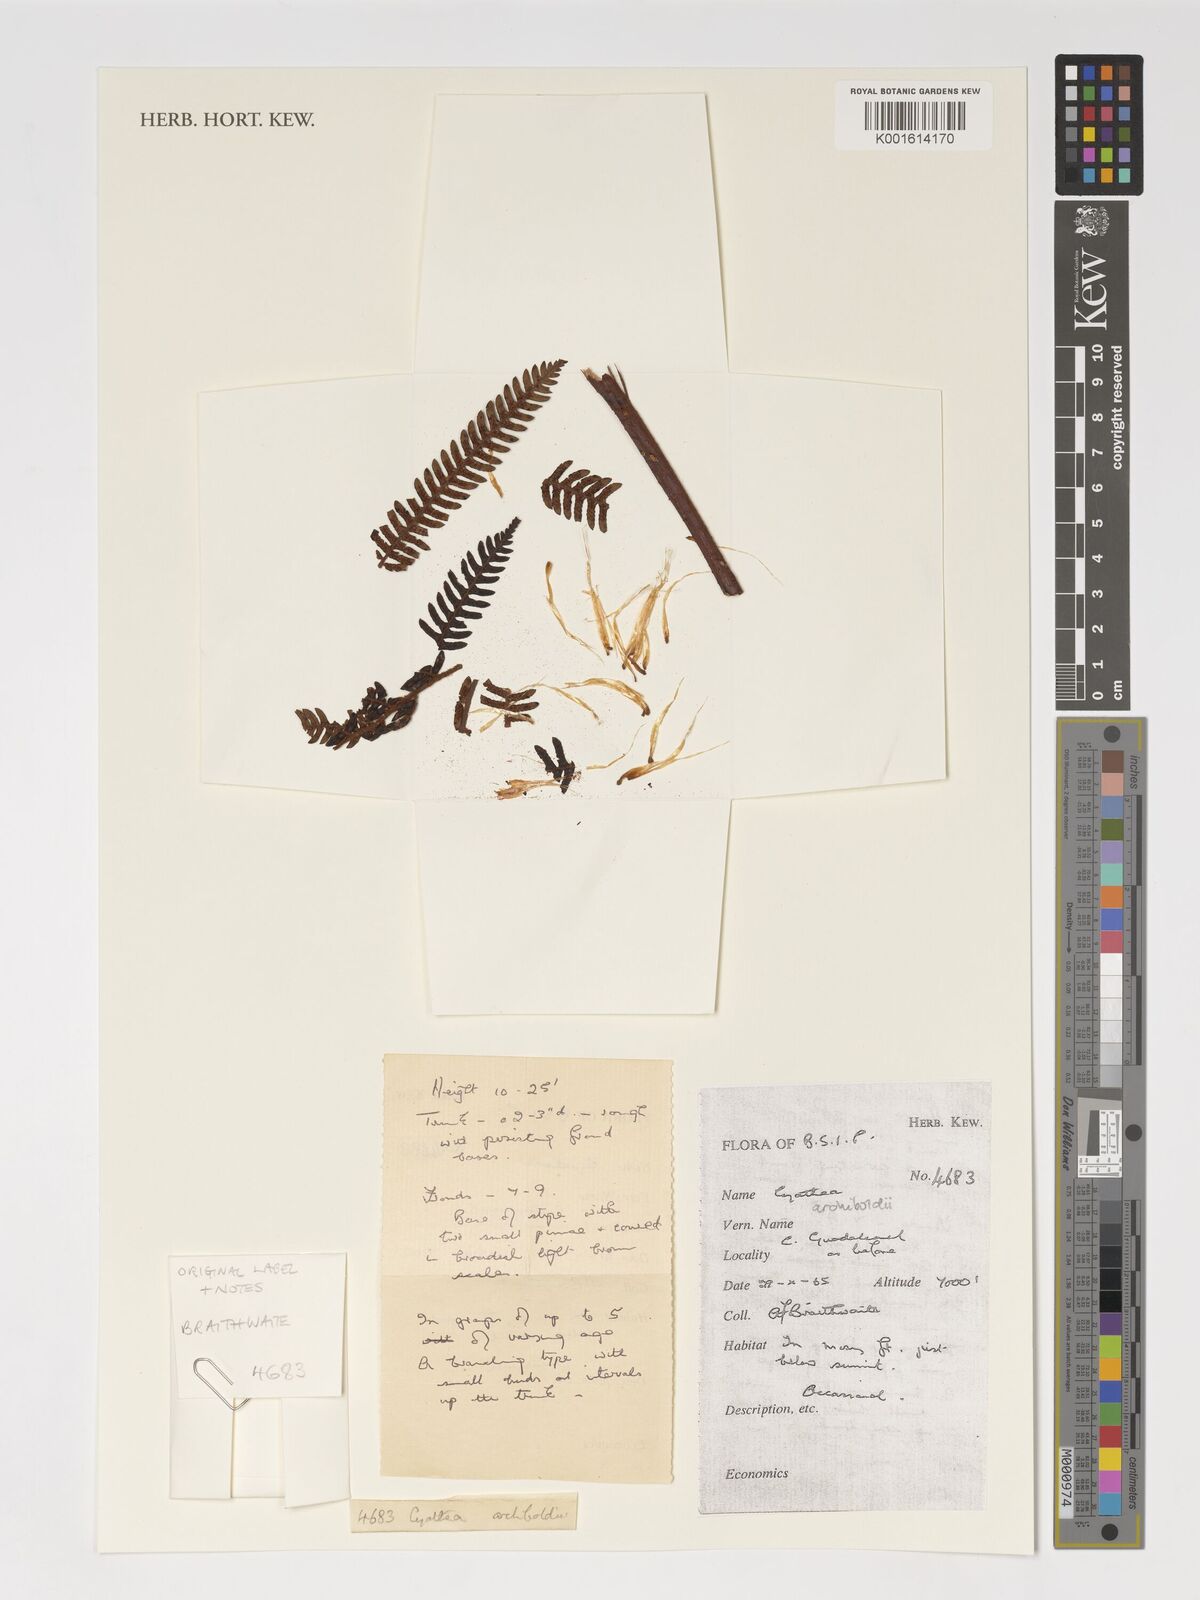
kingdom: Plantae
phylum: Tracheophyta
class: Polypodiopsida
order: Cyatheales
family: Cyatheaceae
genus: Alsophila
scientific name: Alsophila archboldii
